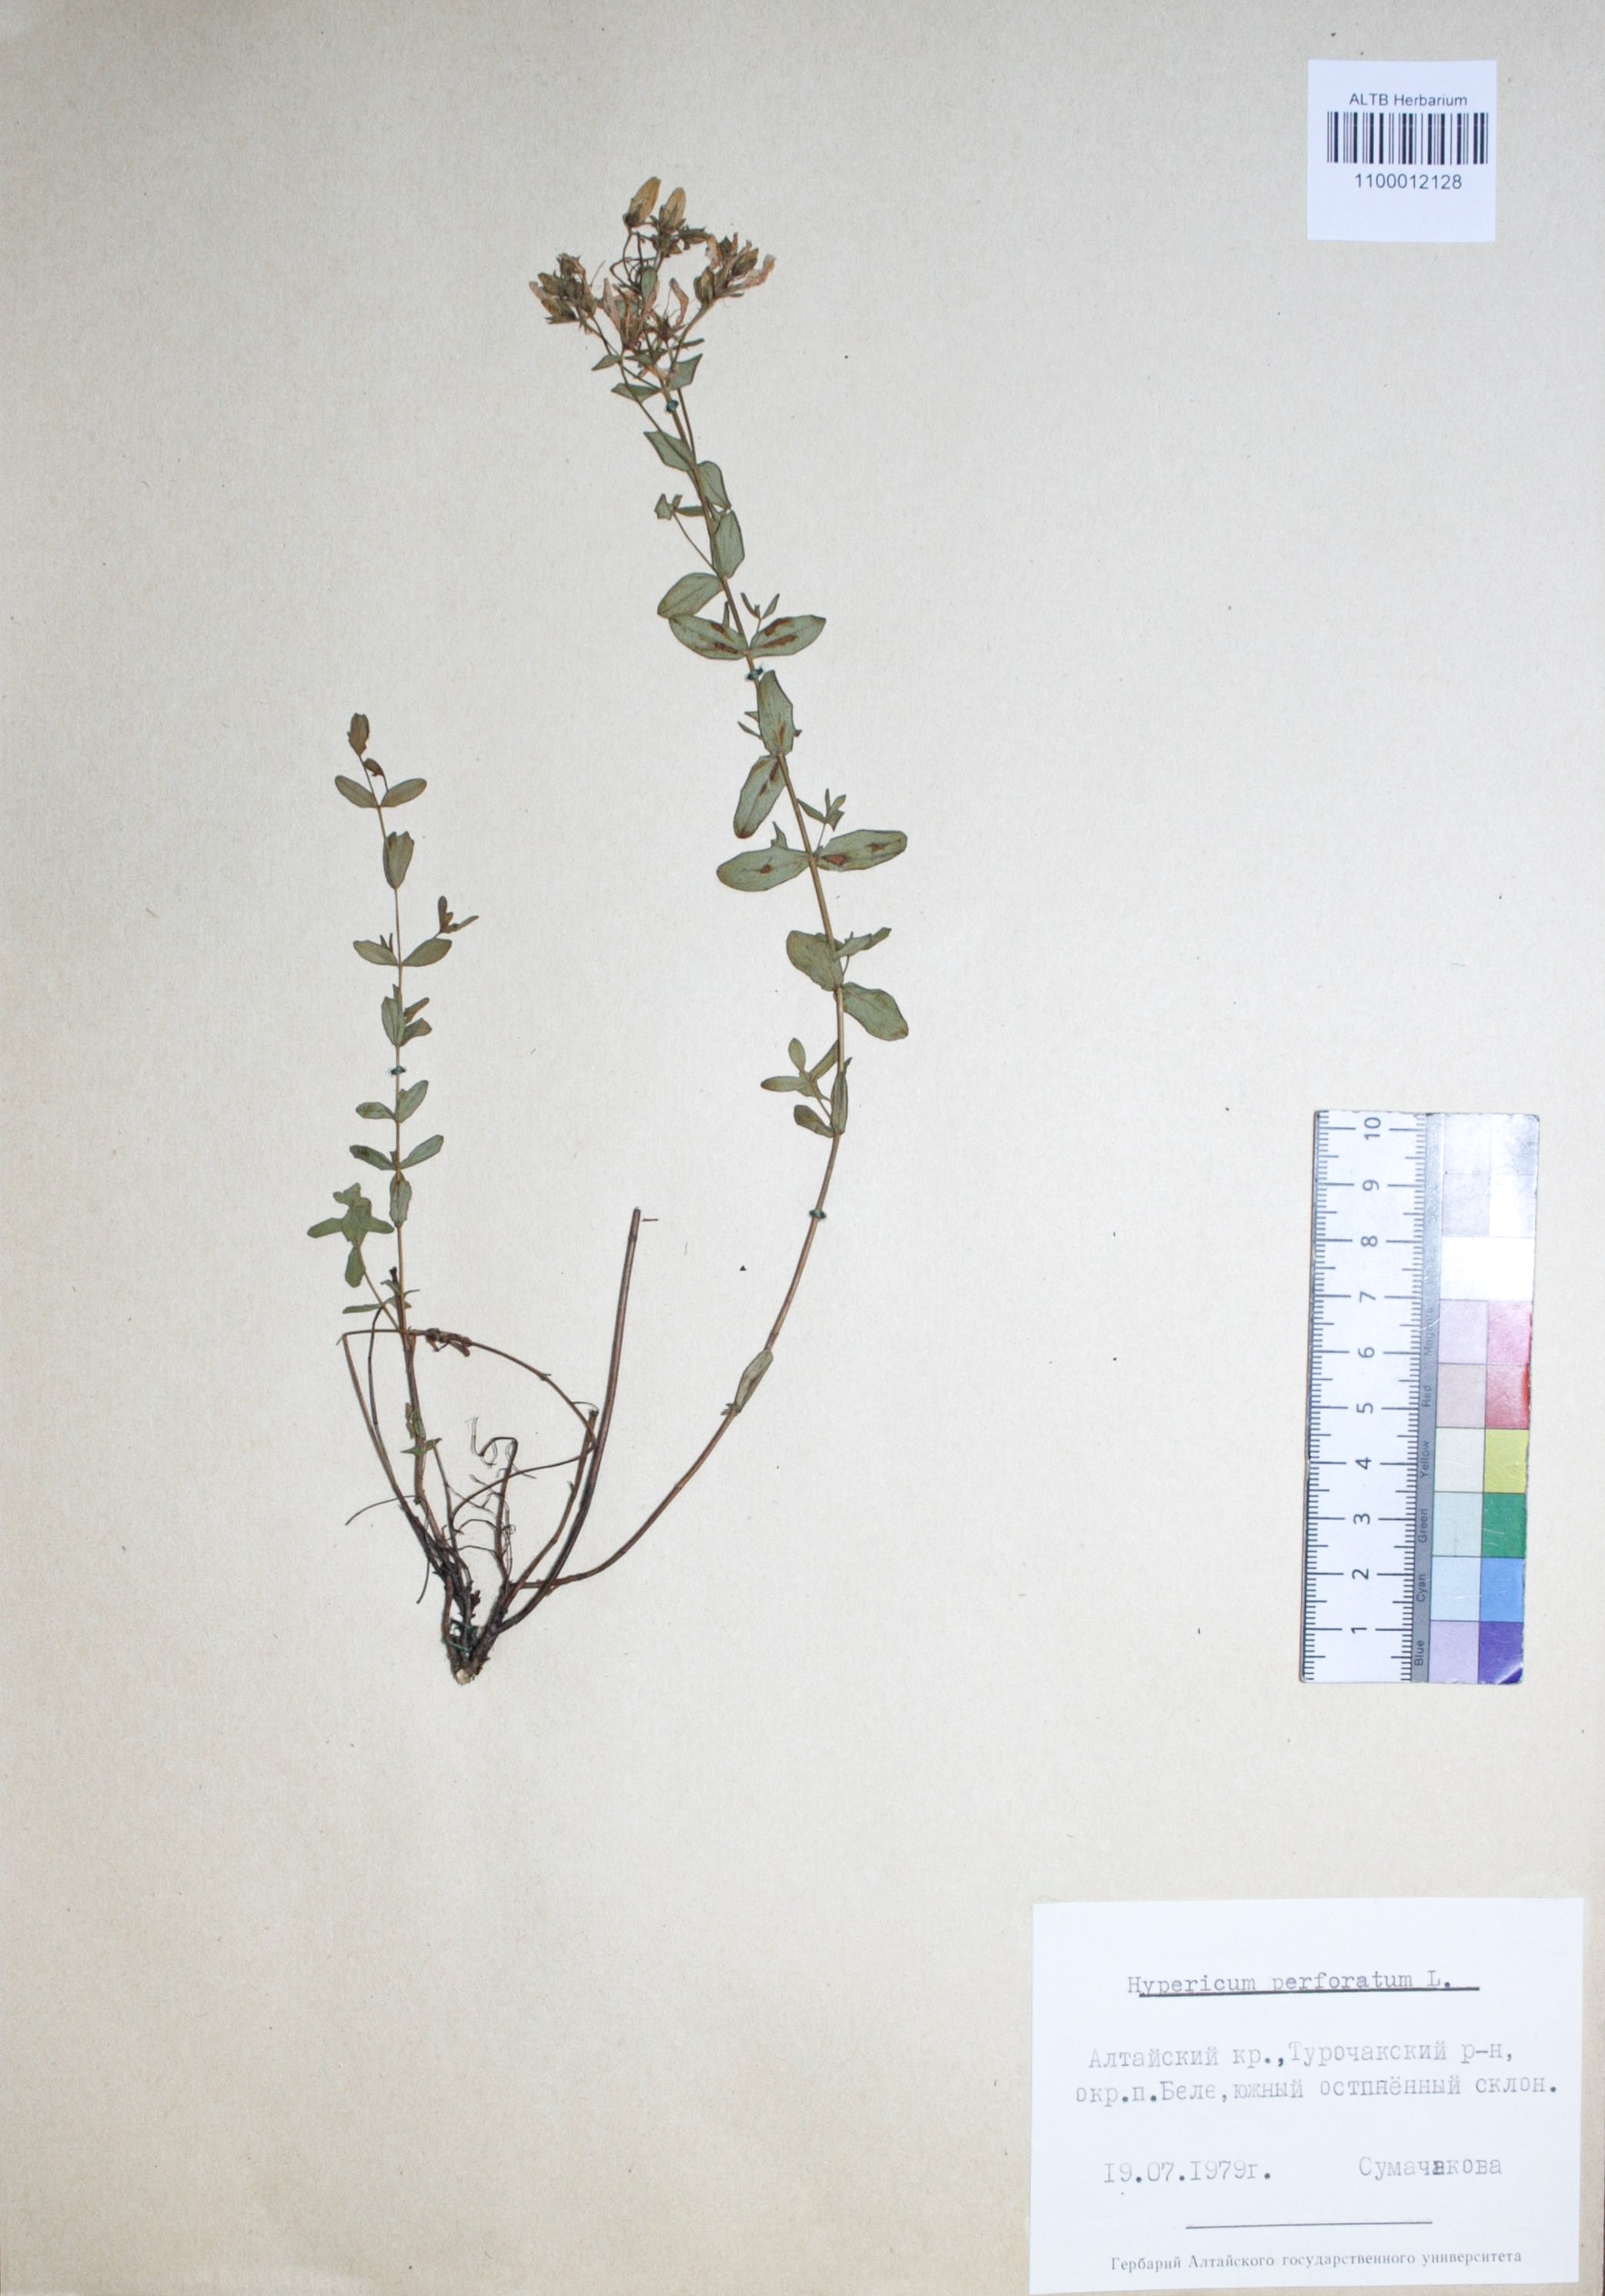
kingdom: Plantae
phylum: Tracheophyta
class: Magnoliopsida
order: Malpighiales
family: Hypericaceae
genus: Hypericum
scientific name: Hypericum perforatum
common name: Common st. johnswort
